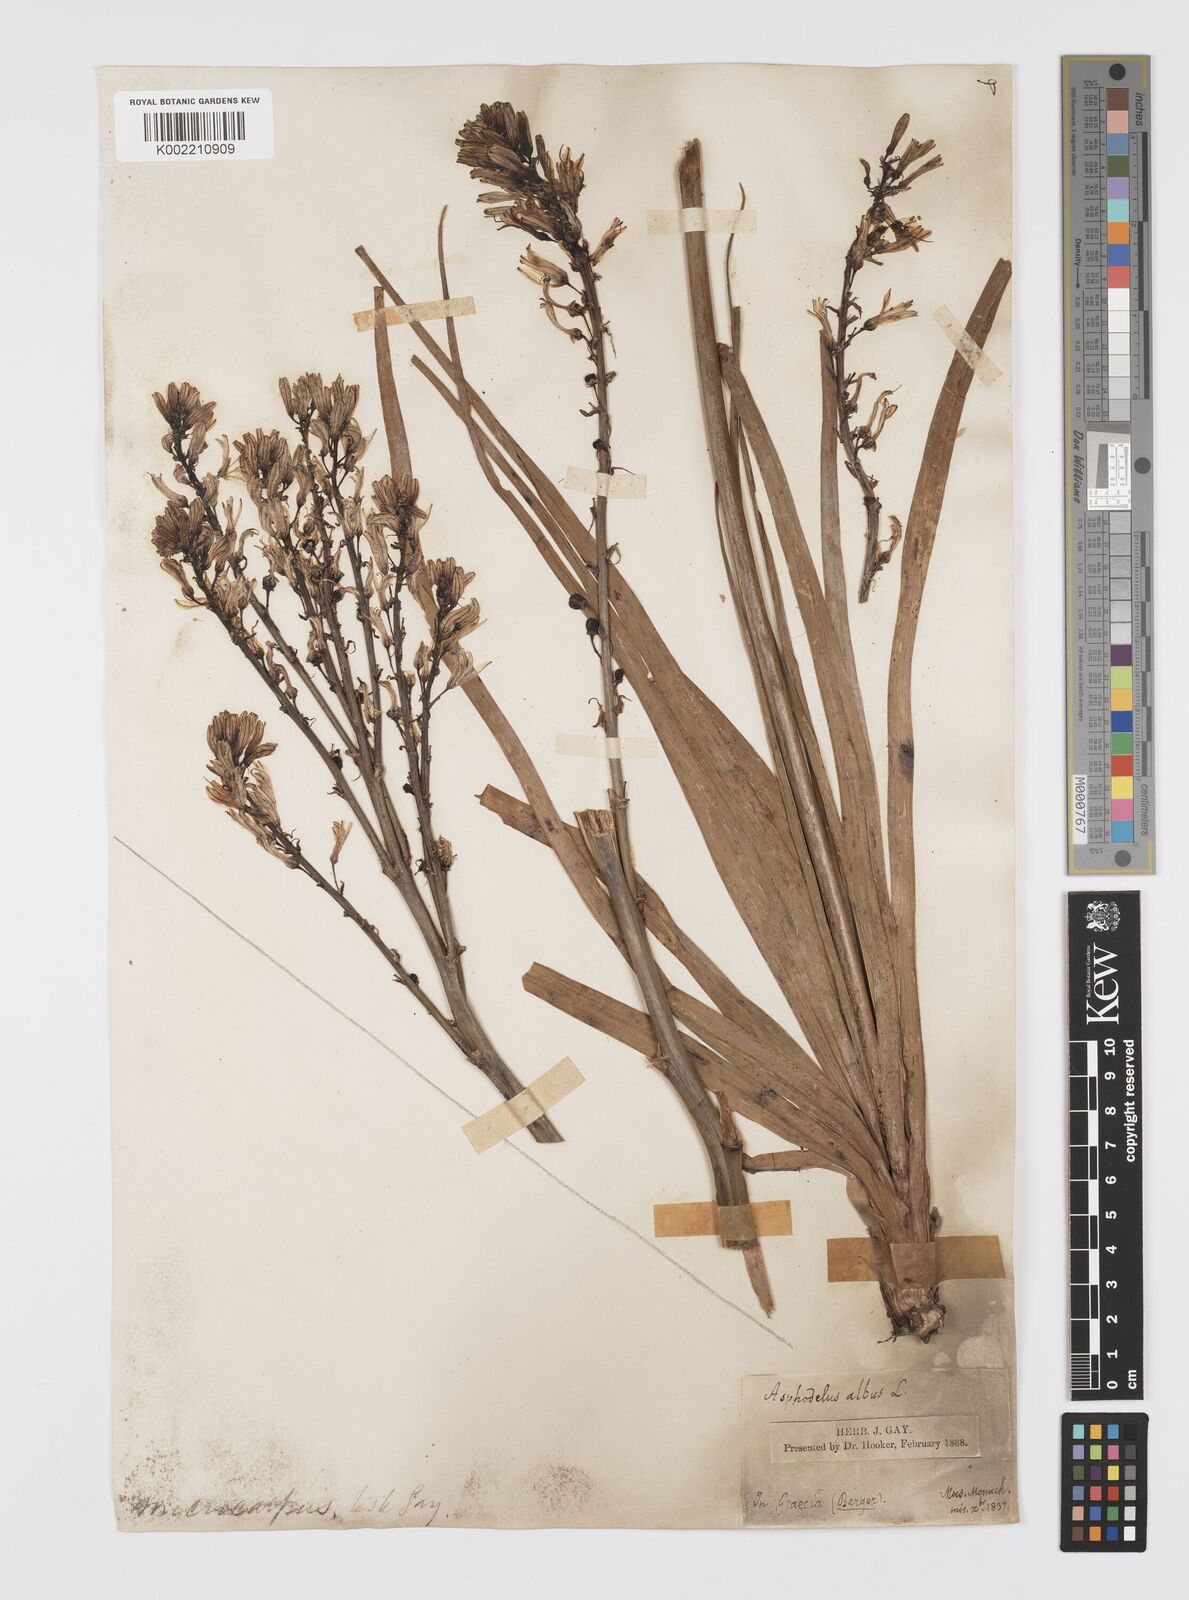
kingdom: Plantae
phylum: Tracheophyta
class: Liliopsida
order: Asparagales
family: Asphodelaceae
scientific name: Asphodelaceae
